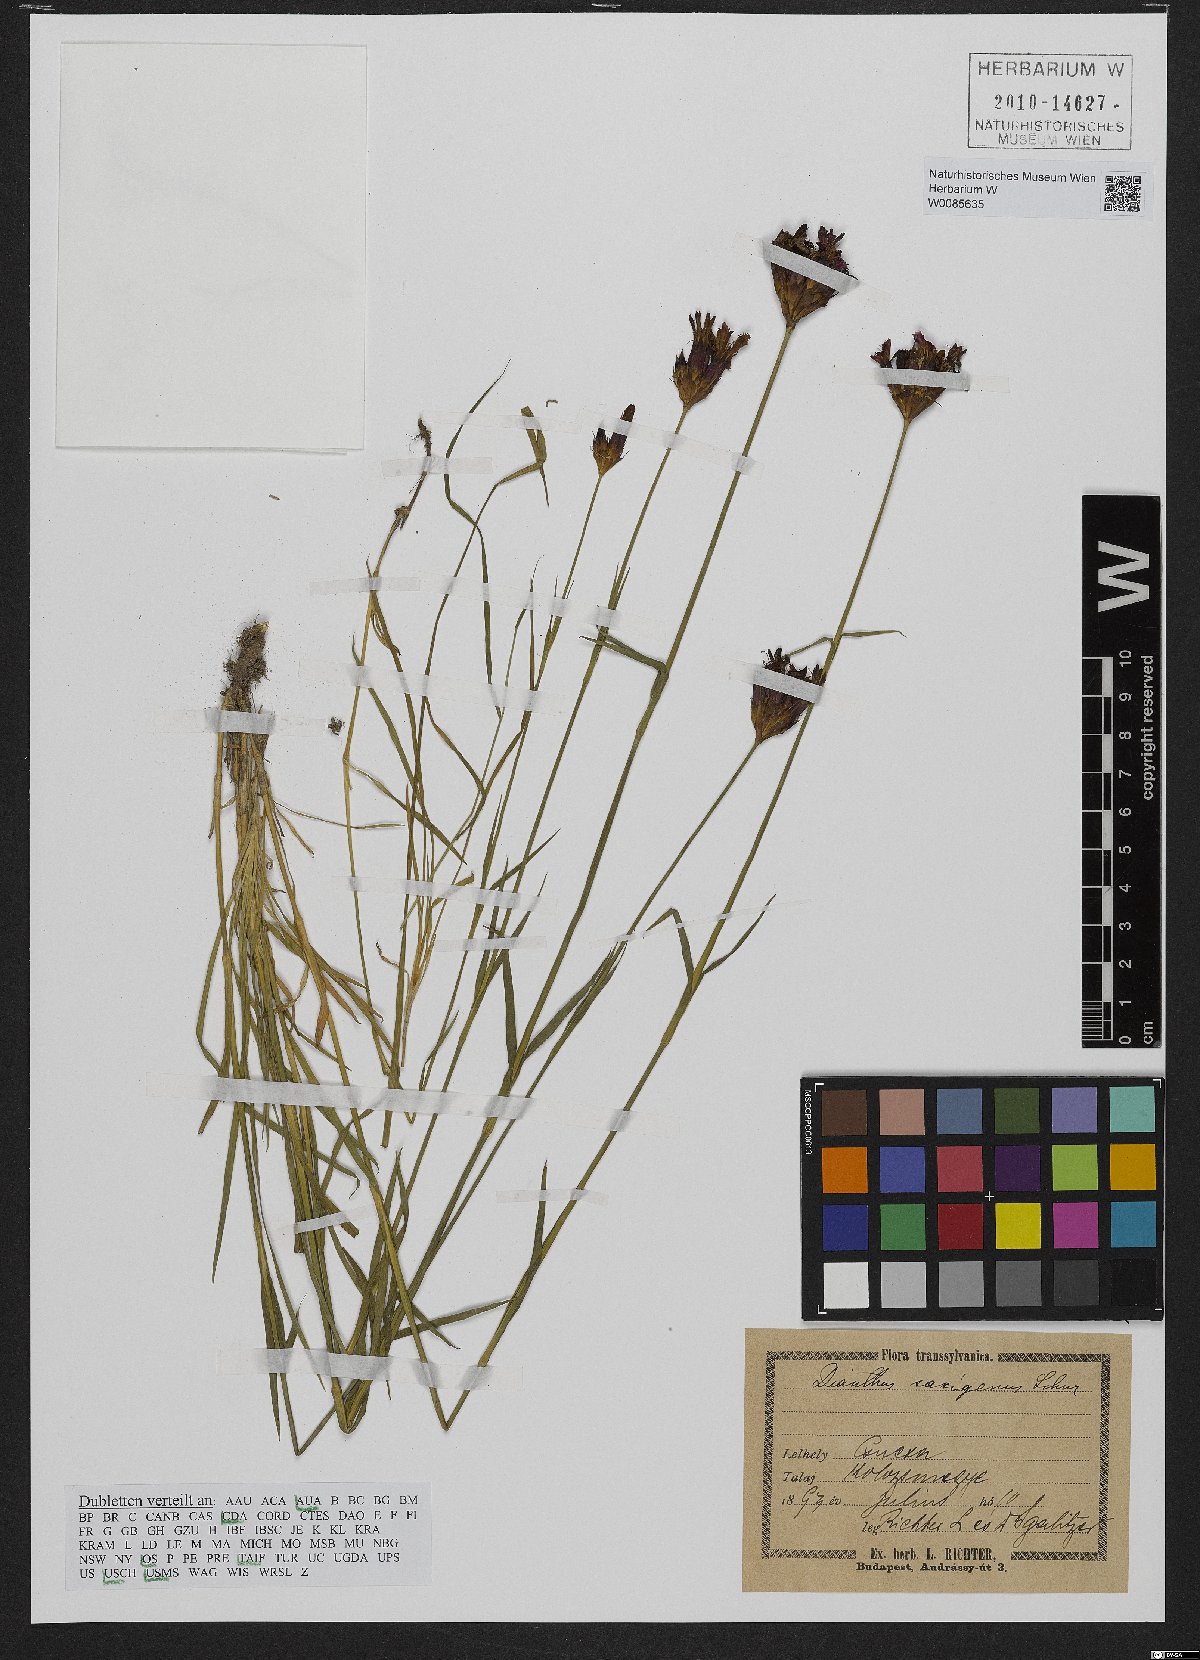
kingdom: Plantae
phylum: Tracheophyta
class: Magnoliopsida
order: Caryophyllales
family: Caryophyllaceae
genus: Dianthus
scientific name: Dianthus
